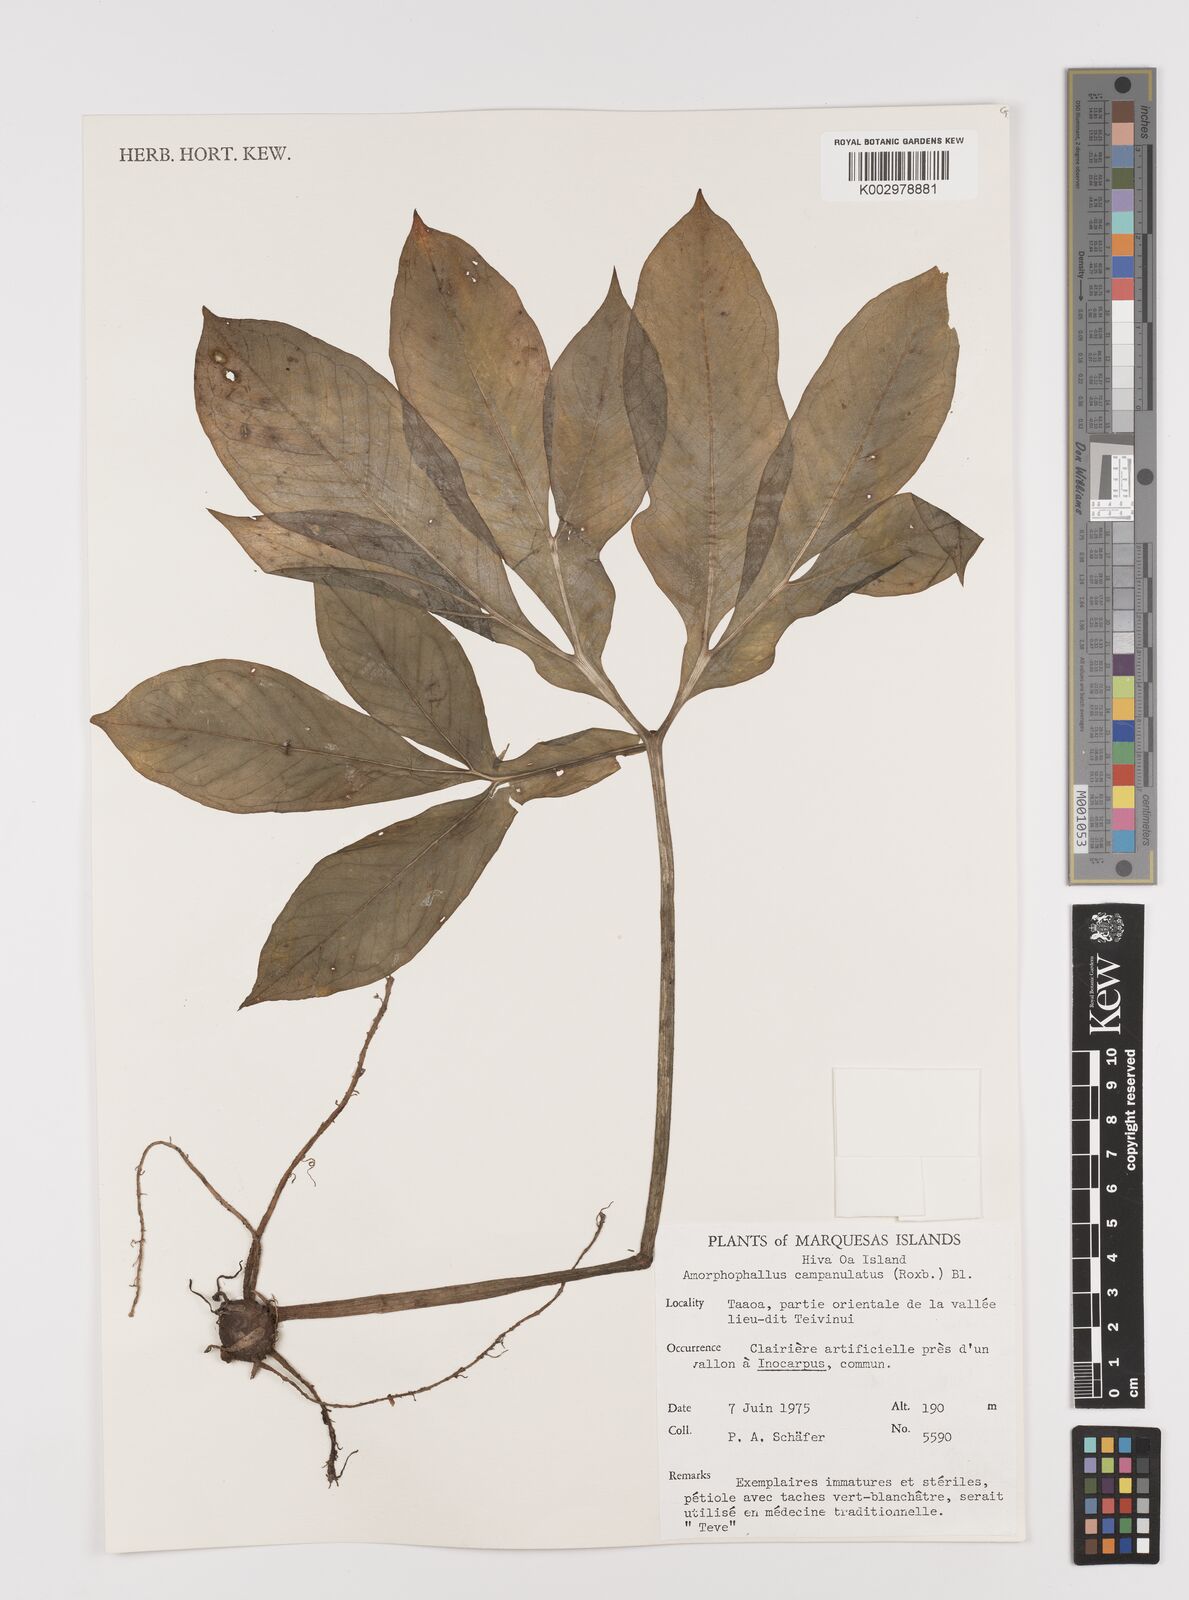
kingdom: Plantae
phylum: Tracheophyta
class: Liliopsida
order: Alismatales
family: Araceae
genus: Amorphophallus
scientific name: Amorphophallus paeoniifolius
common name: Telinga-potato
